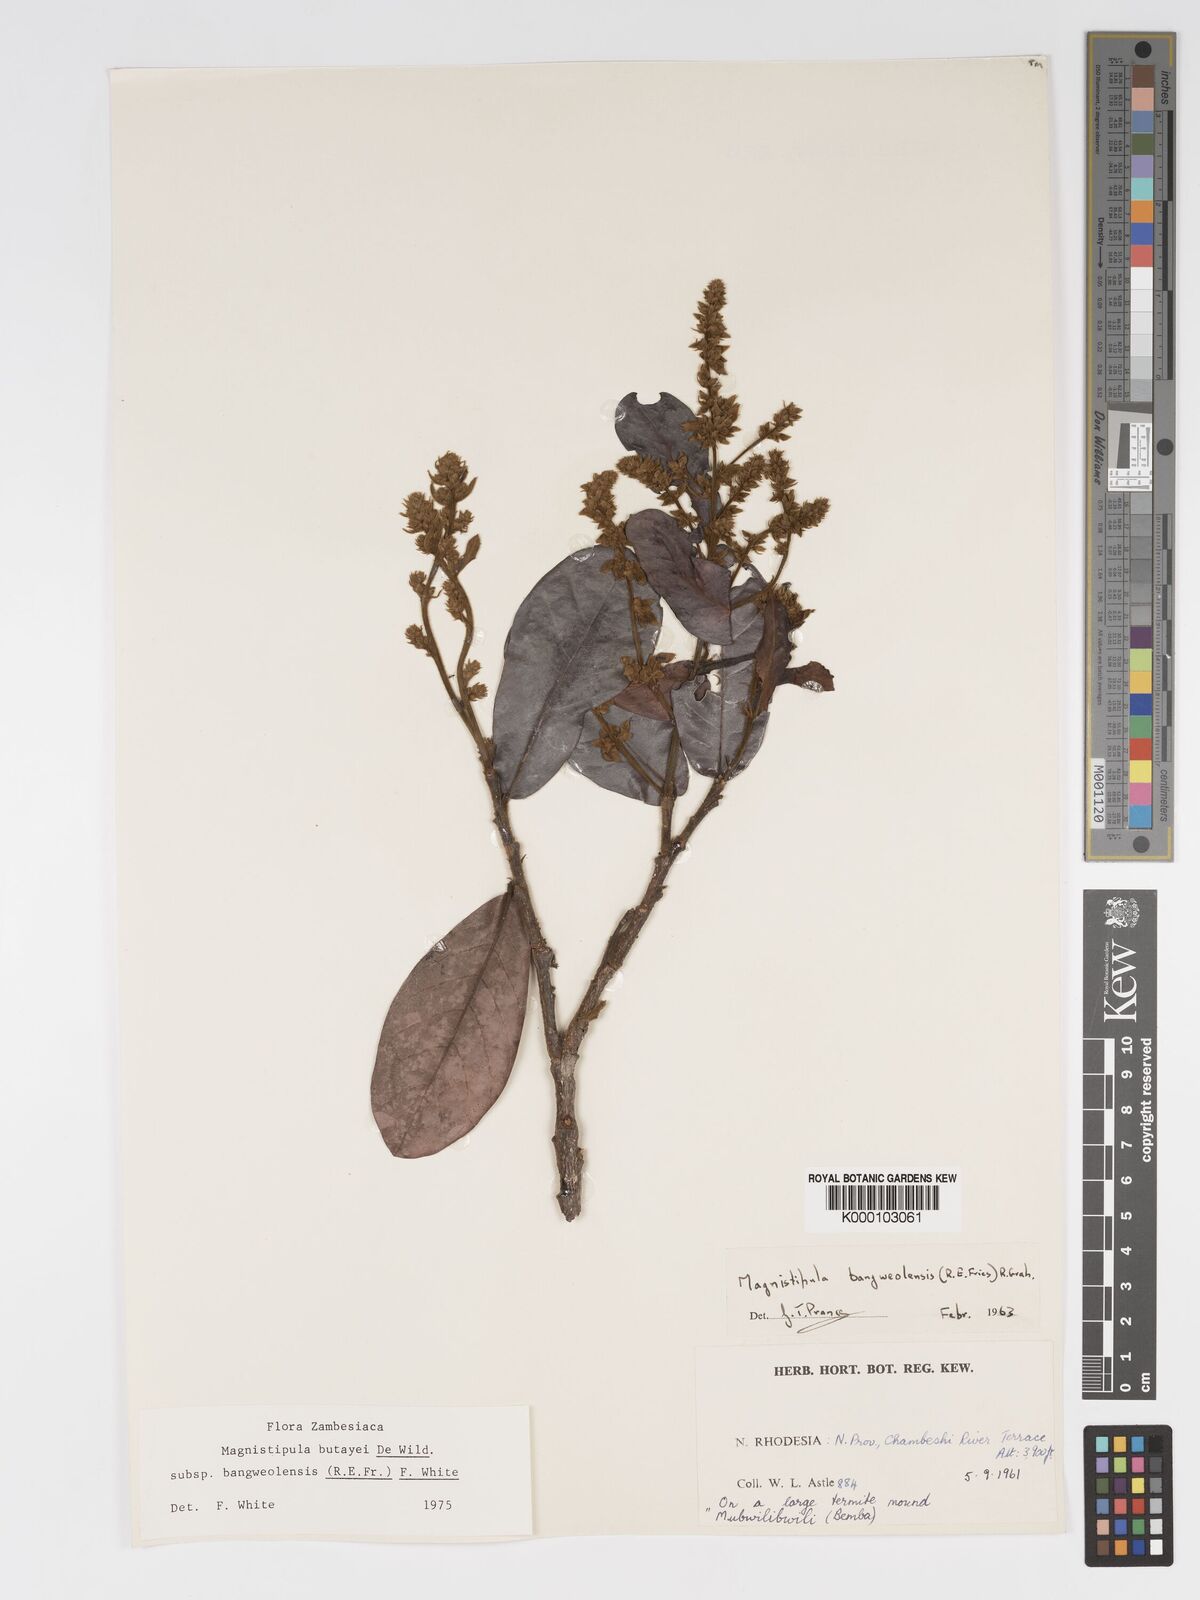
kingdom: Plantae
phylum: Tracheophyta
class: Magnoliopsida
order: Malpighiales
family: Chrysobalanaceae
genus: Magnistipula
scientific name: Magnistipula butayei
